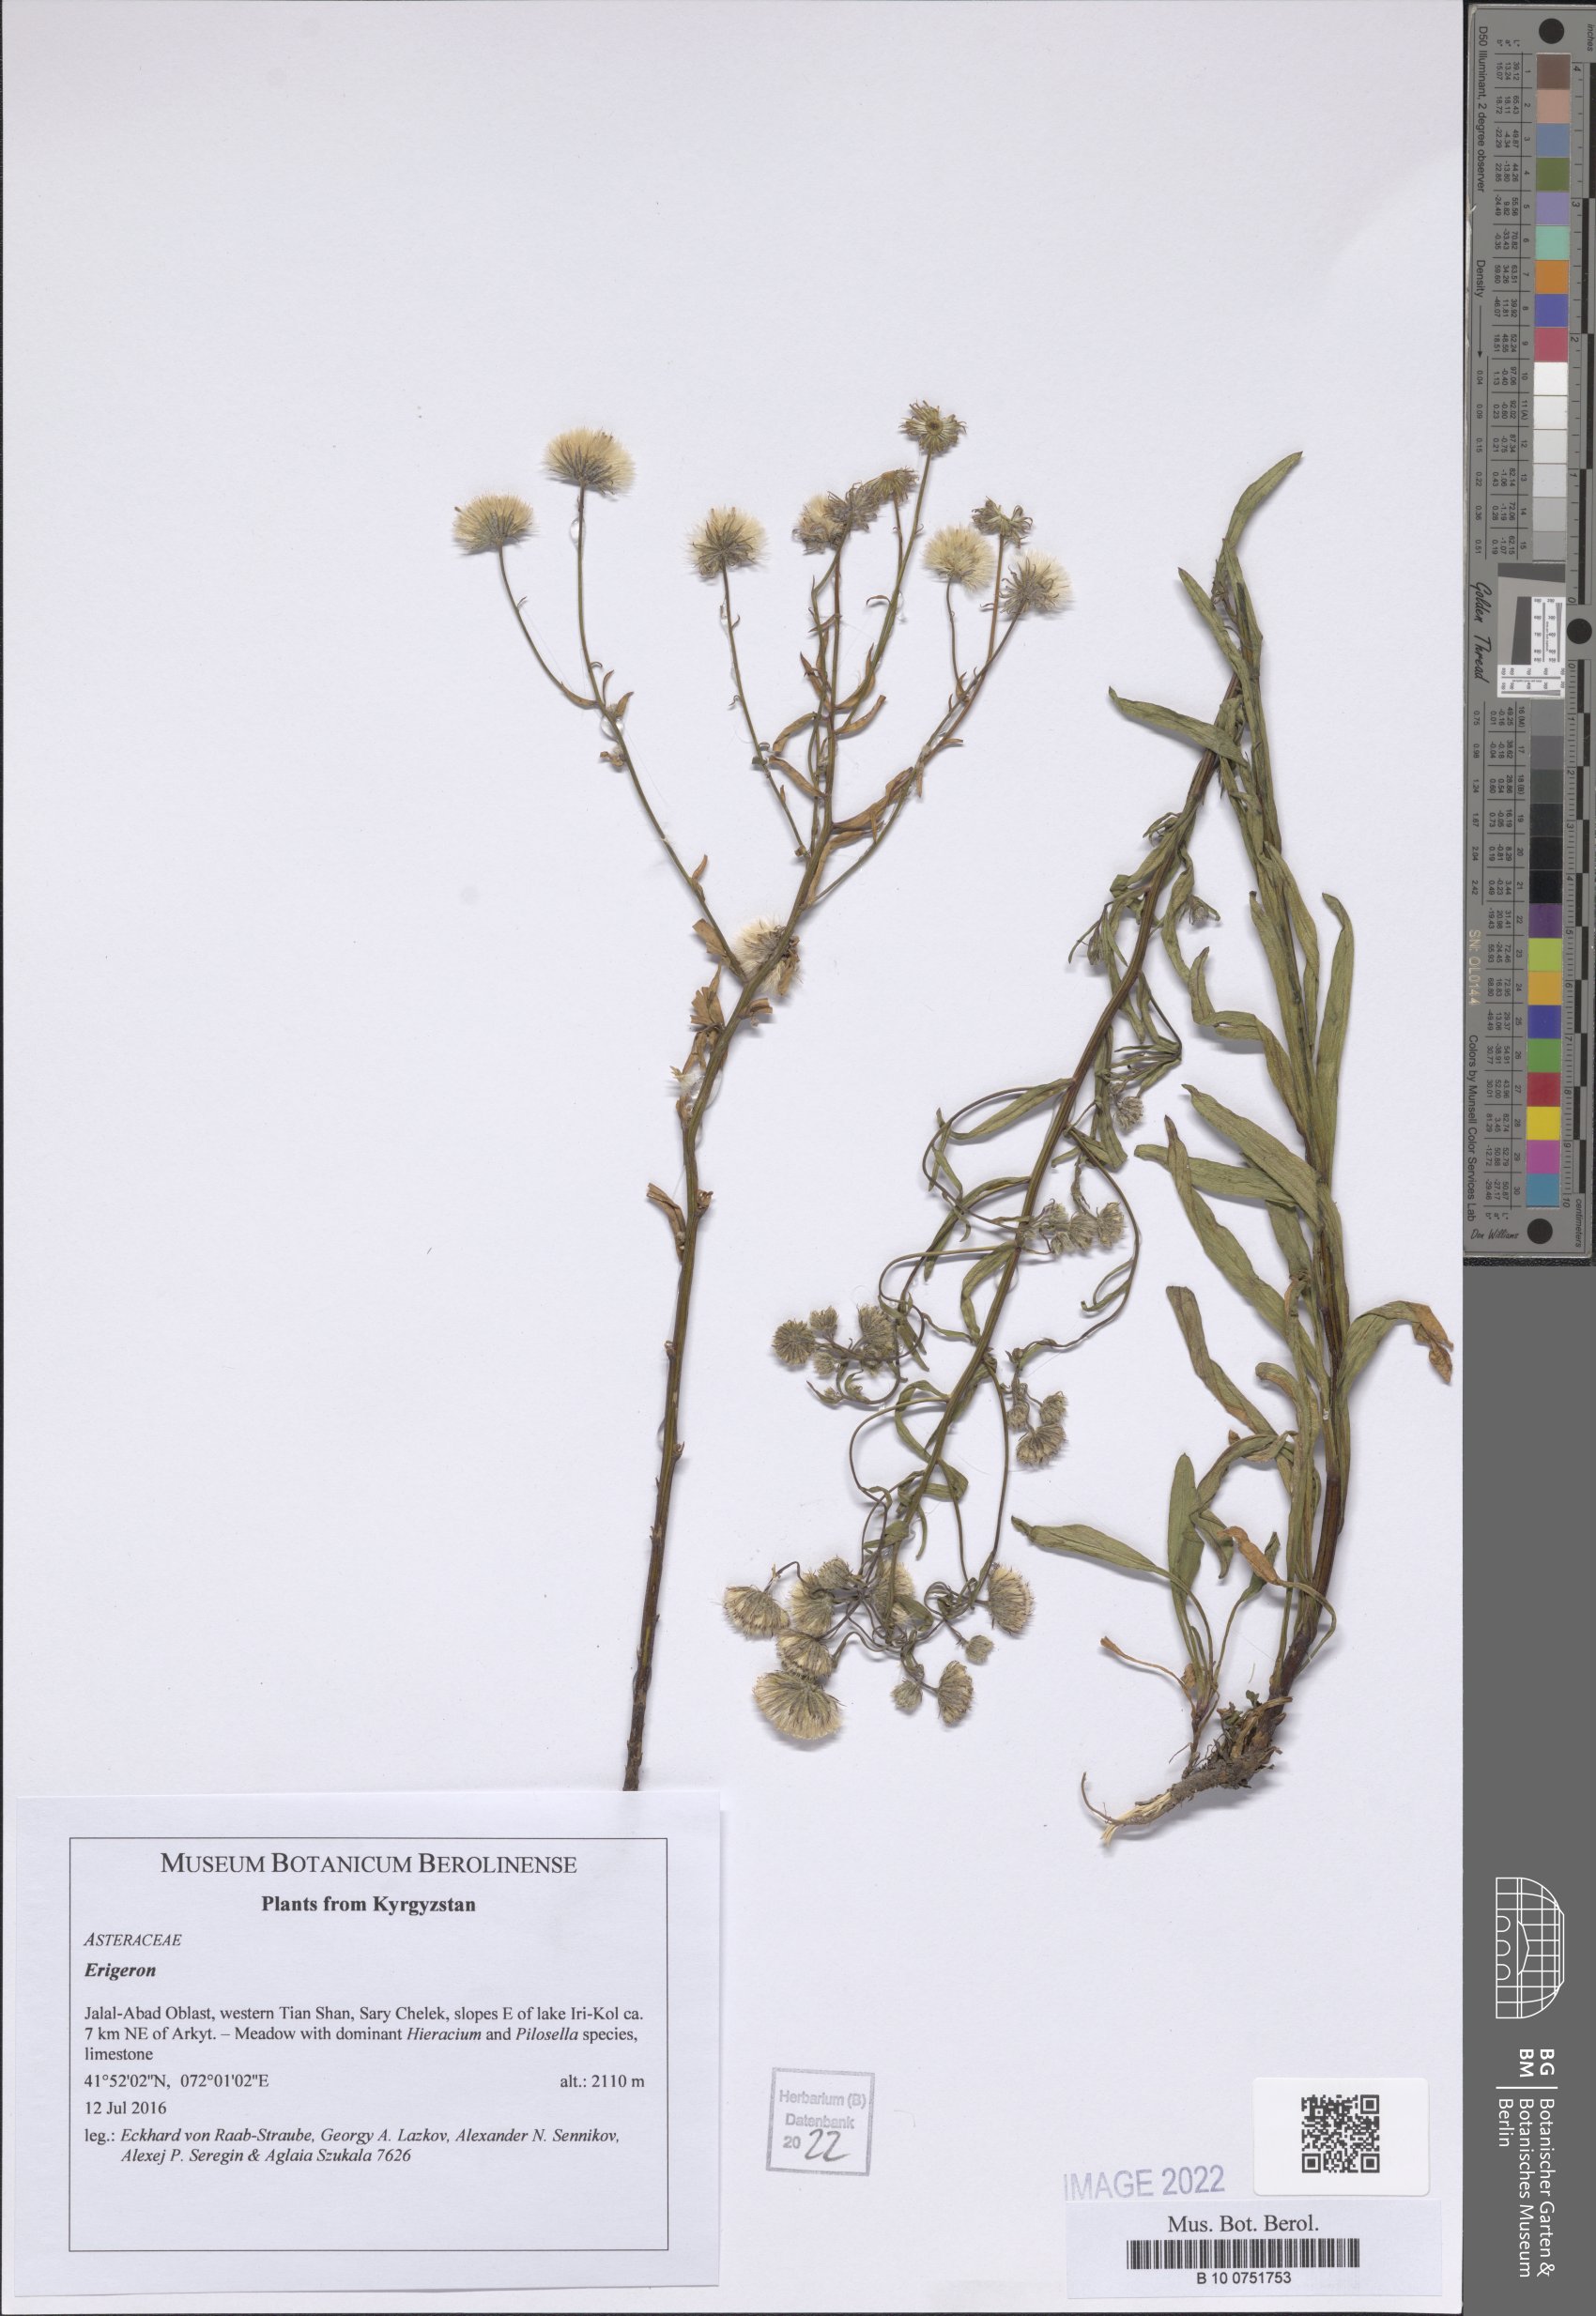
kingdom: Plantae
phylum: Tracheophyta
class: Magnoliopsida
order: Asterales
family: Asteraceae
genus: Erigeron
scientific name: Erigeron
